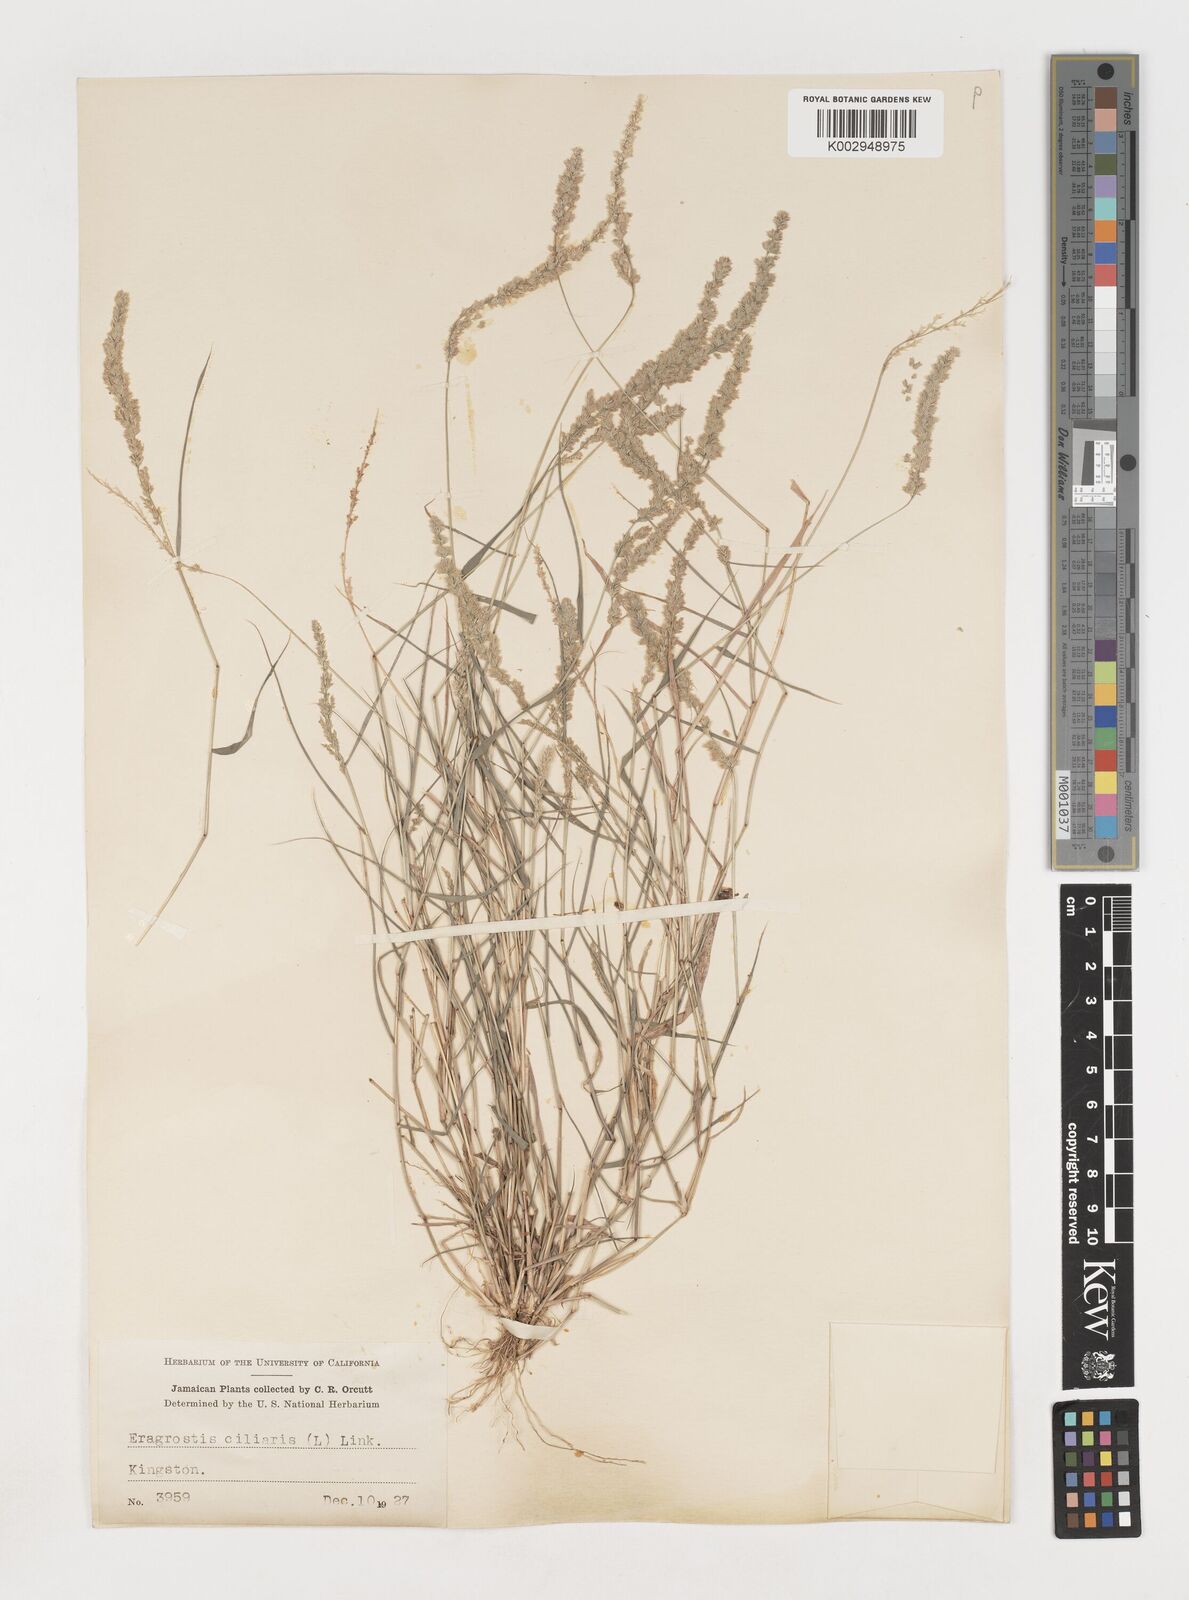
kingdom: Plantae
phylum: Tracheophyta
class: Liliopsida
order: Poales
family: Poaceae
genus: Eragrostis
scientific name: Eragrostis ciliaris
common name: Gophertail lovegrass
